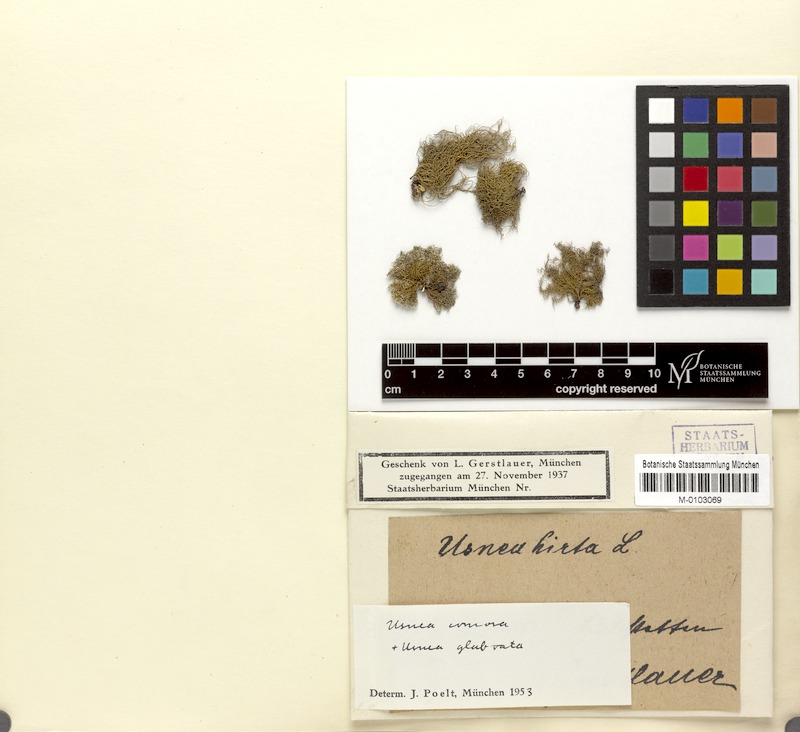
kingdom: Fungi
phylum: Ascomycota
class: Lecanoromycetes
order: Lecanorales
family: Parmeliaceae
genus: Usnea
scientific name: Usnea subfloridana
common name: Boreal beard lichen
